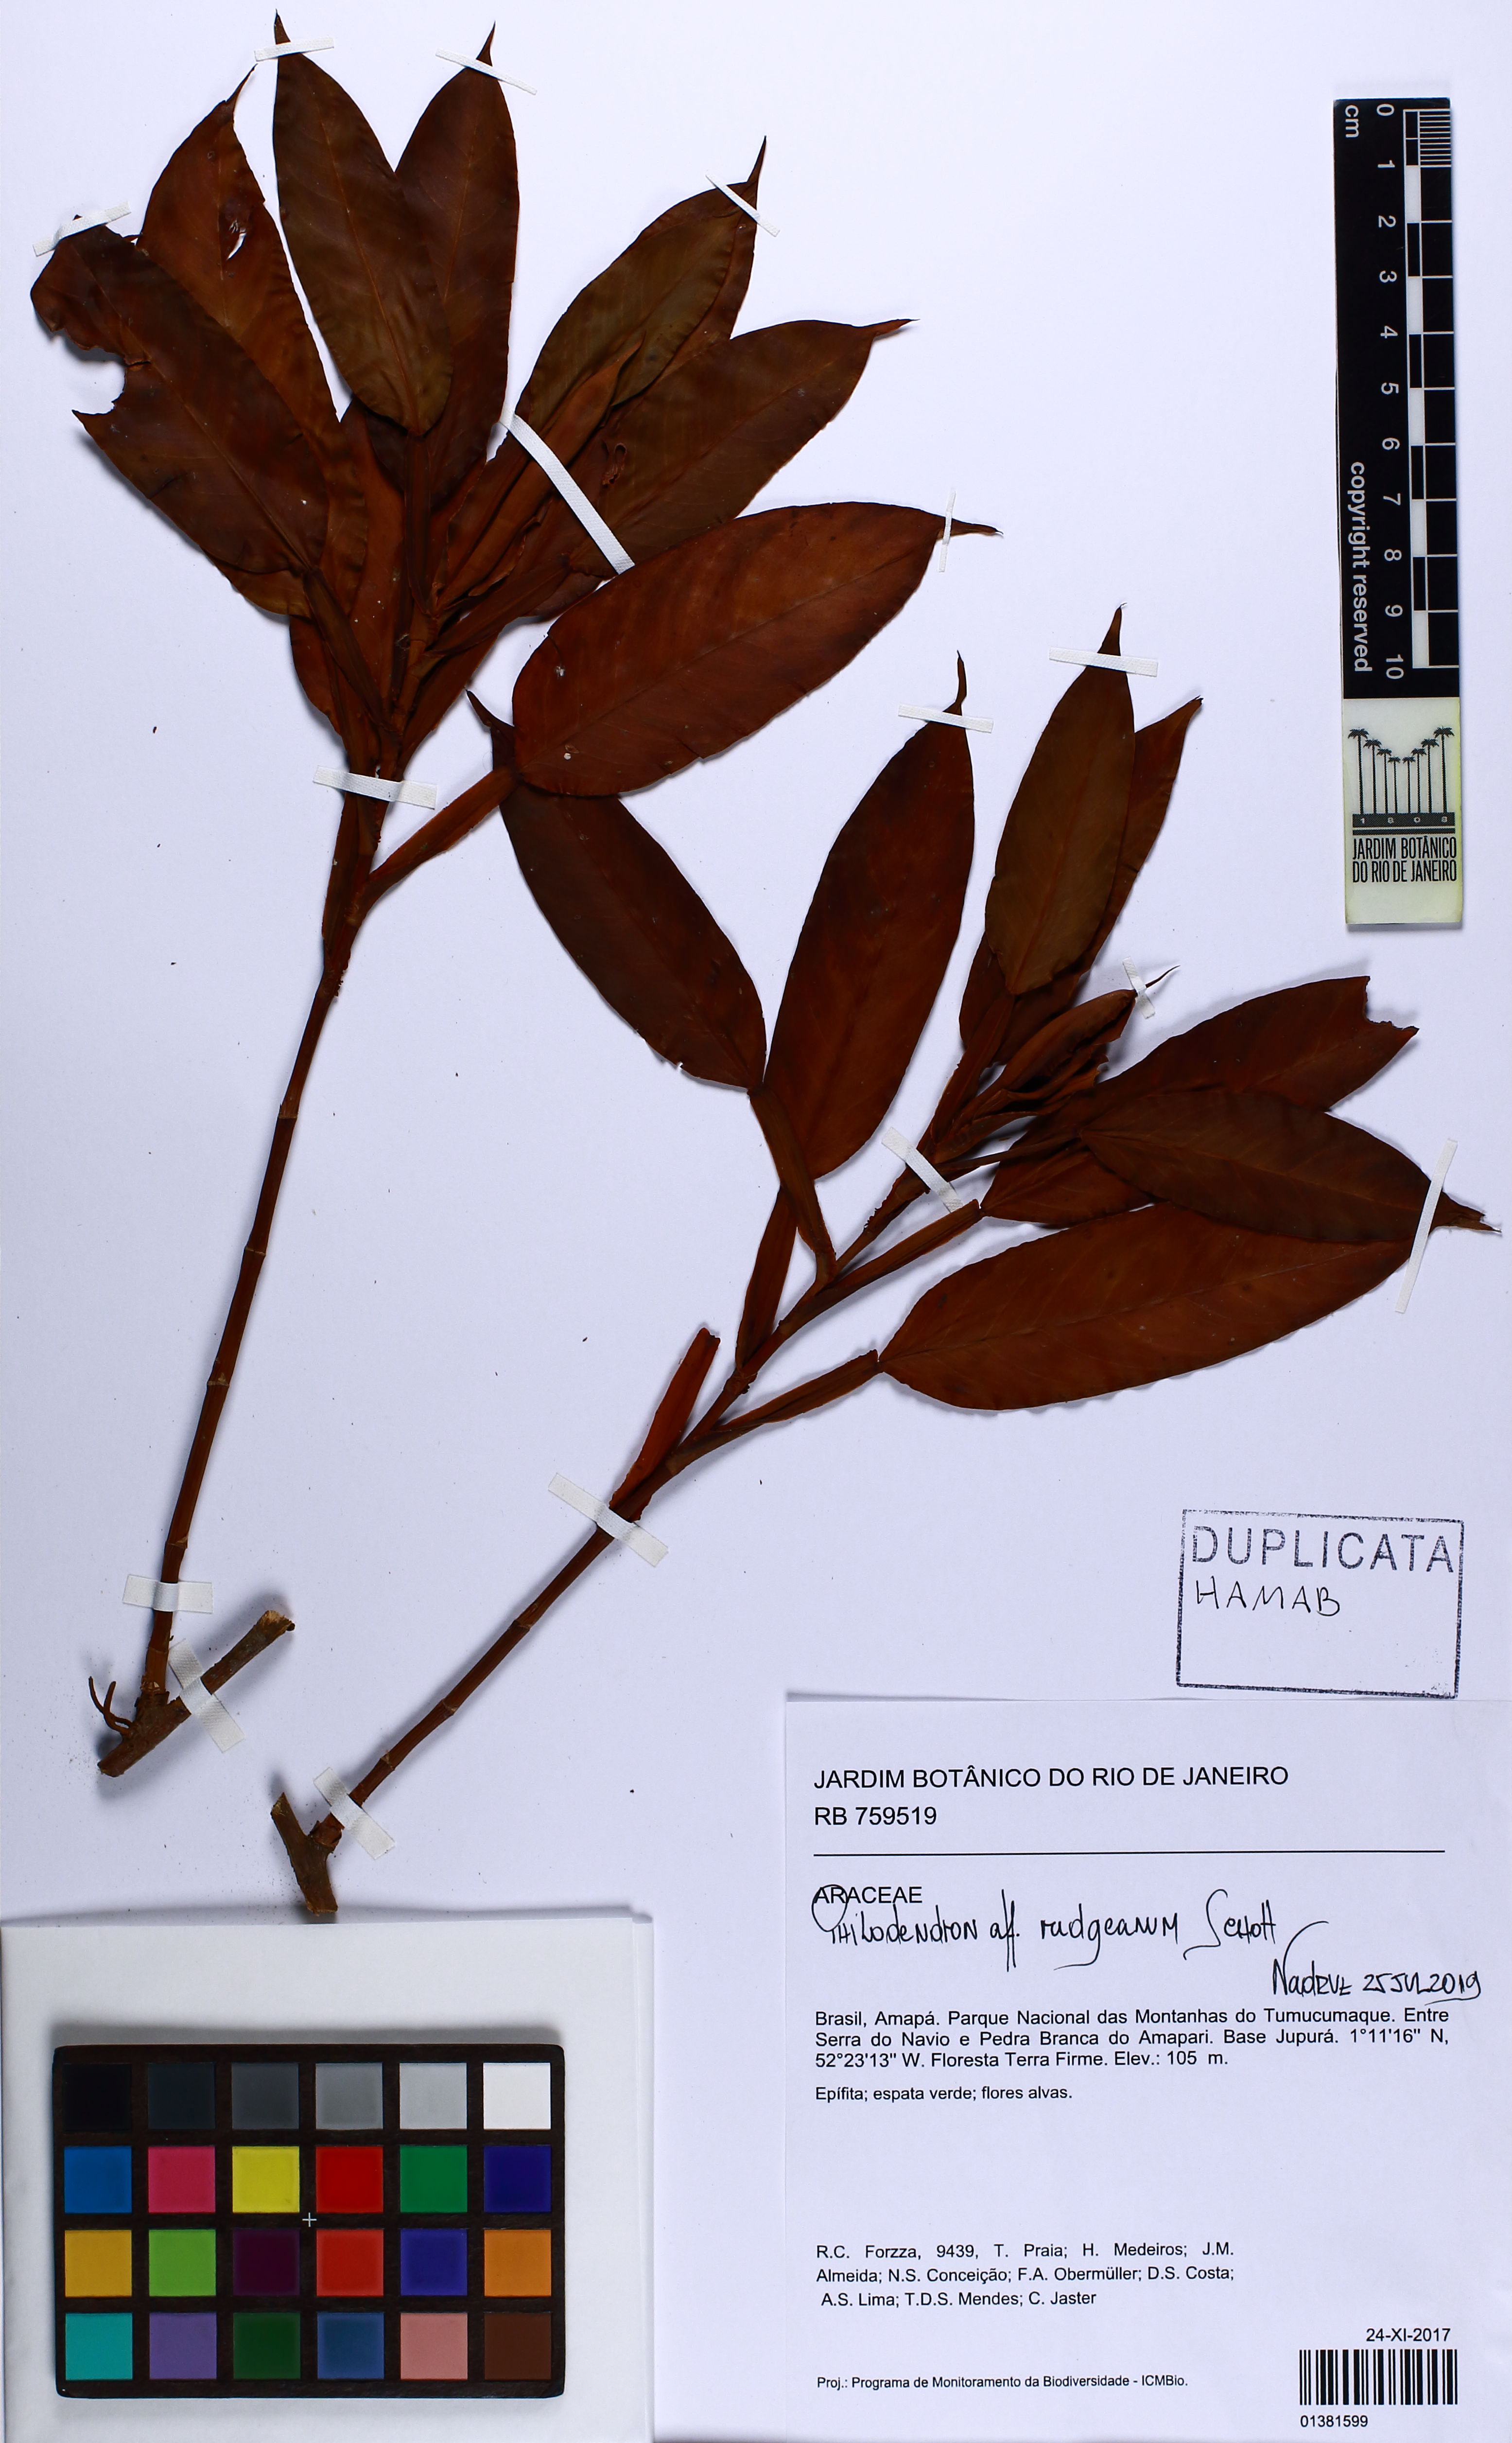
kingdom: Plantae
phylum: Tracheophyta
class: Liliopsida
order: Alismatales
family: Araceae
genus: Philodendron
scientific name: Philodendron rudgeanum
